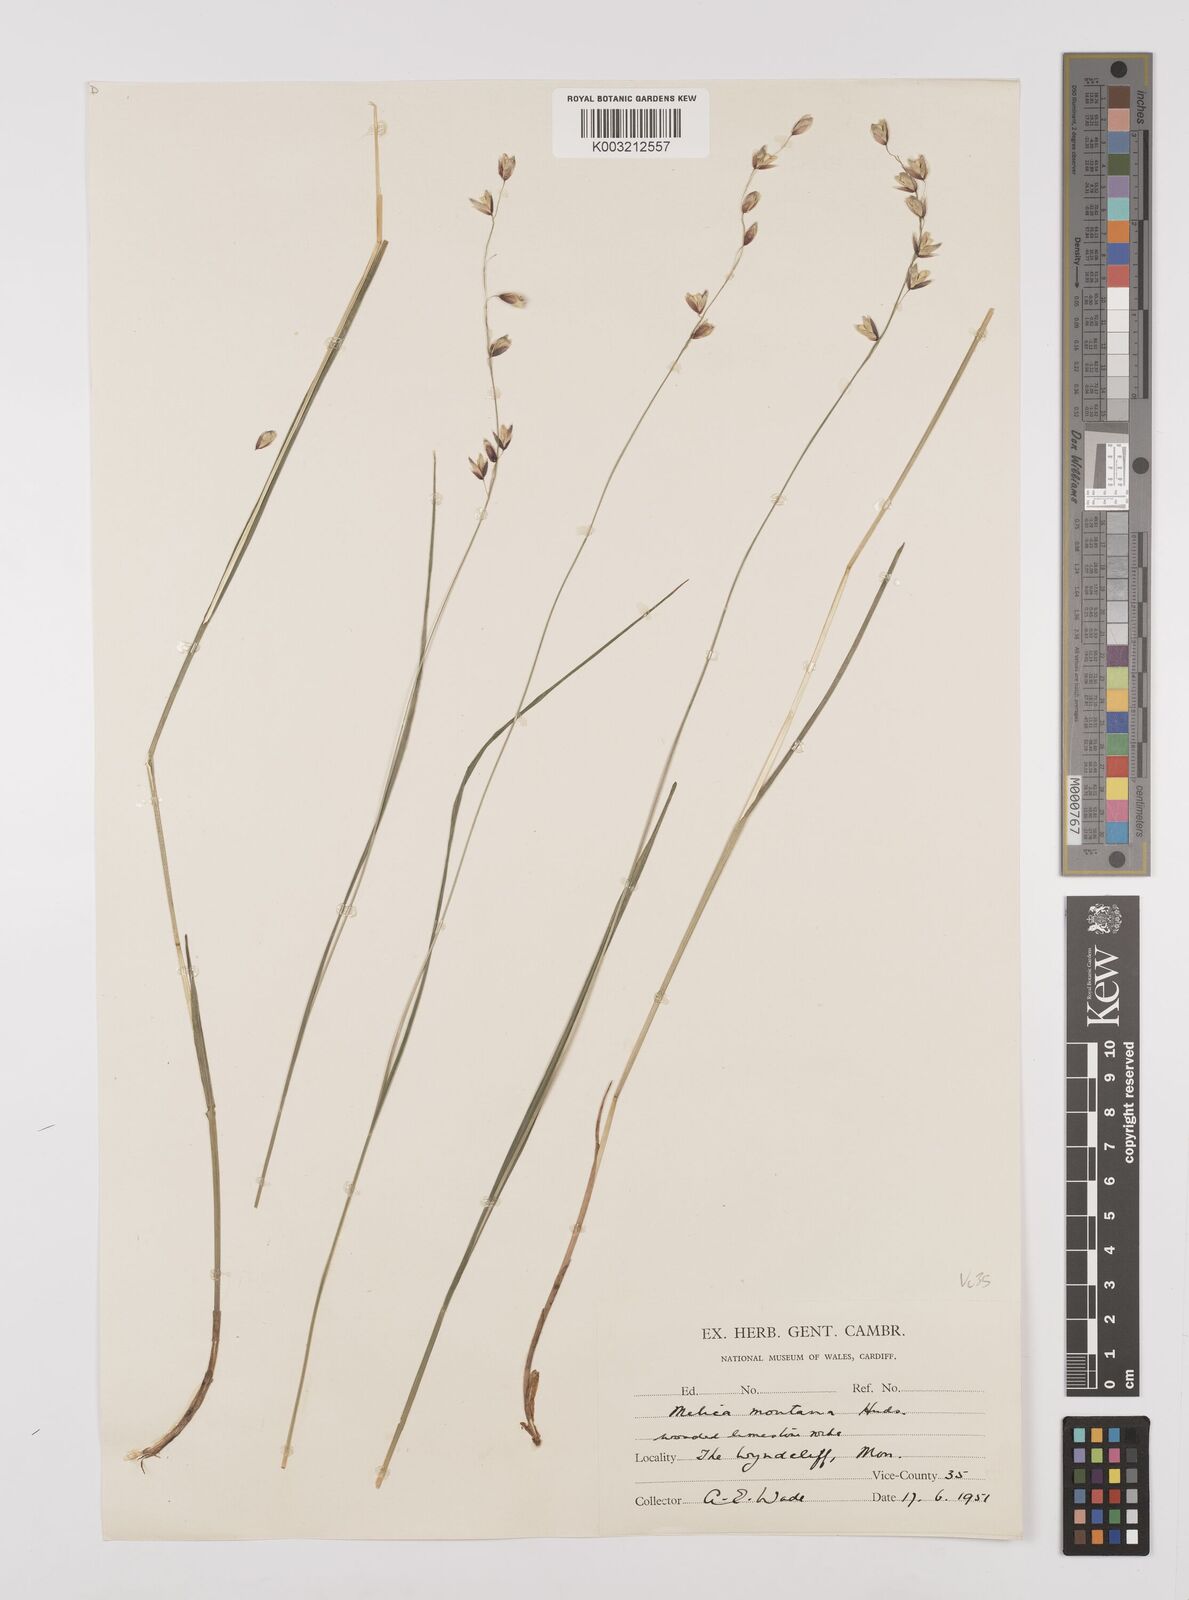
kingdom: Plantae
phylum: Tracheophyta
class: Liliopsida
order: Poales
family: Poaceae
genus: Melica
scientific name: Melica
